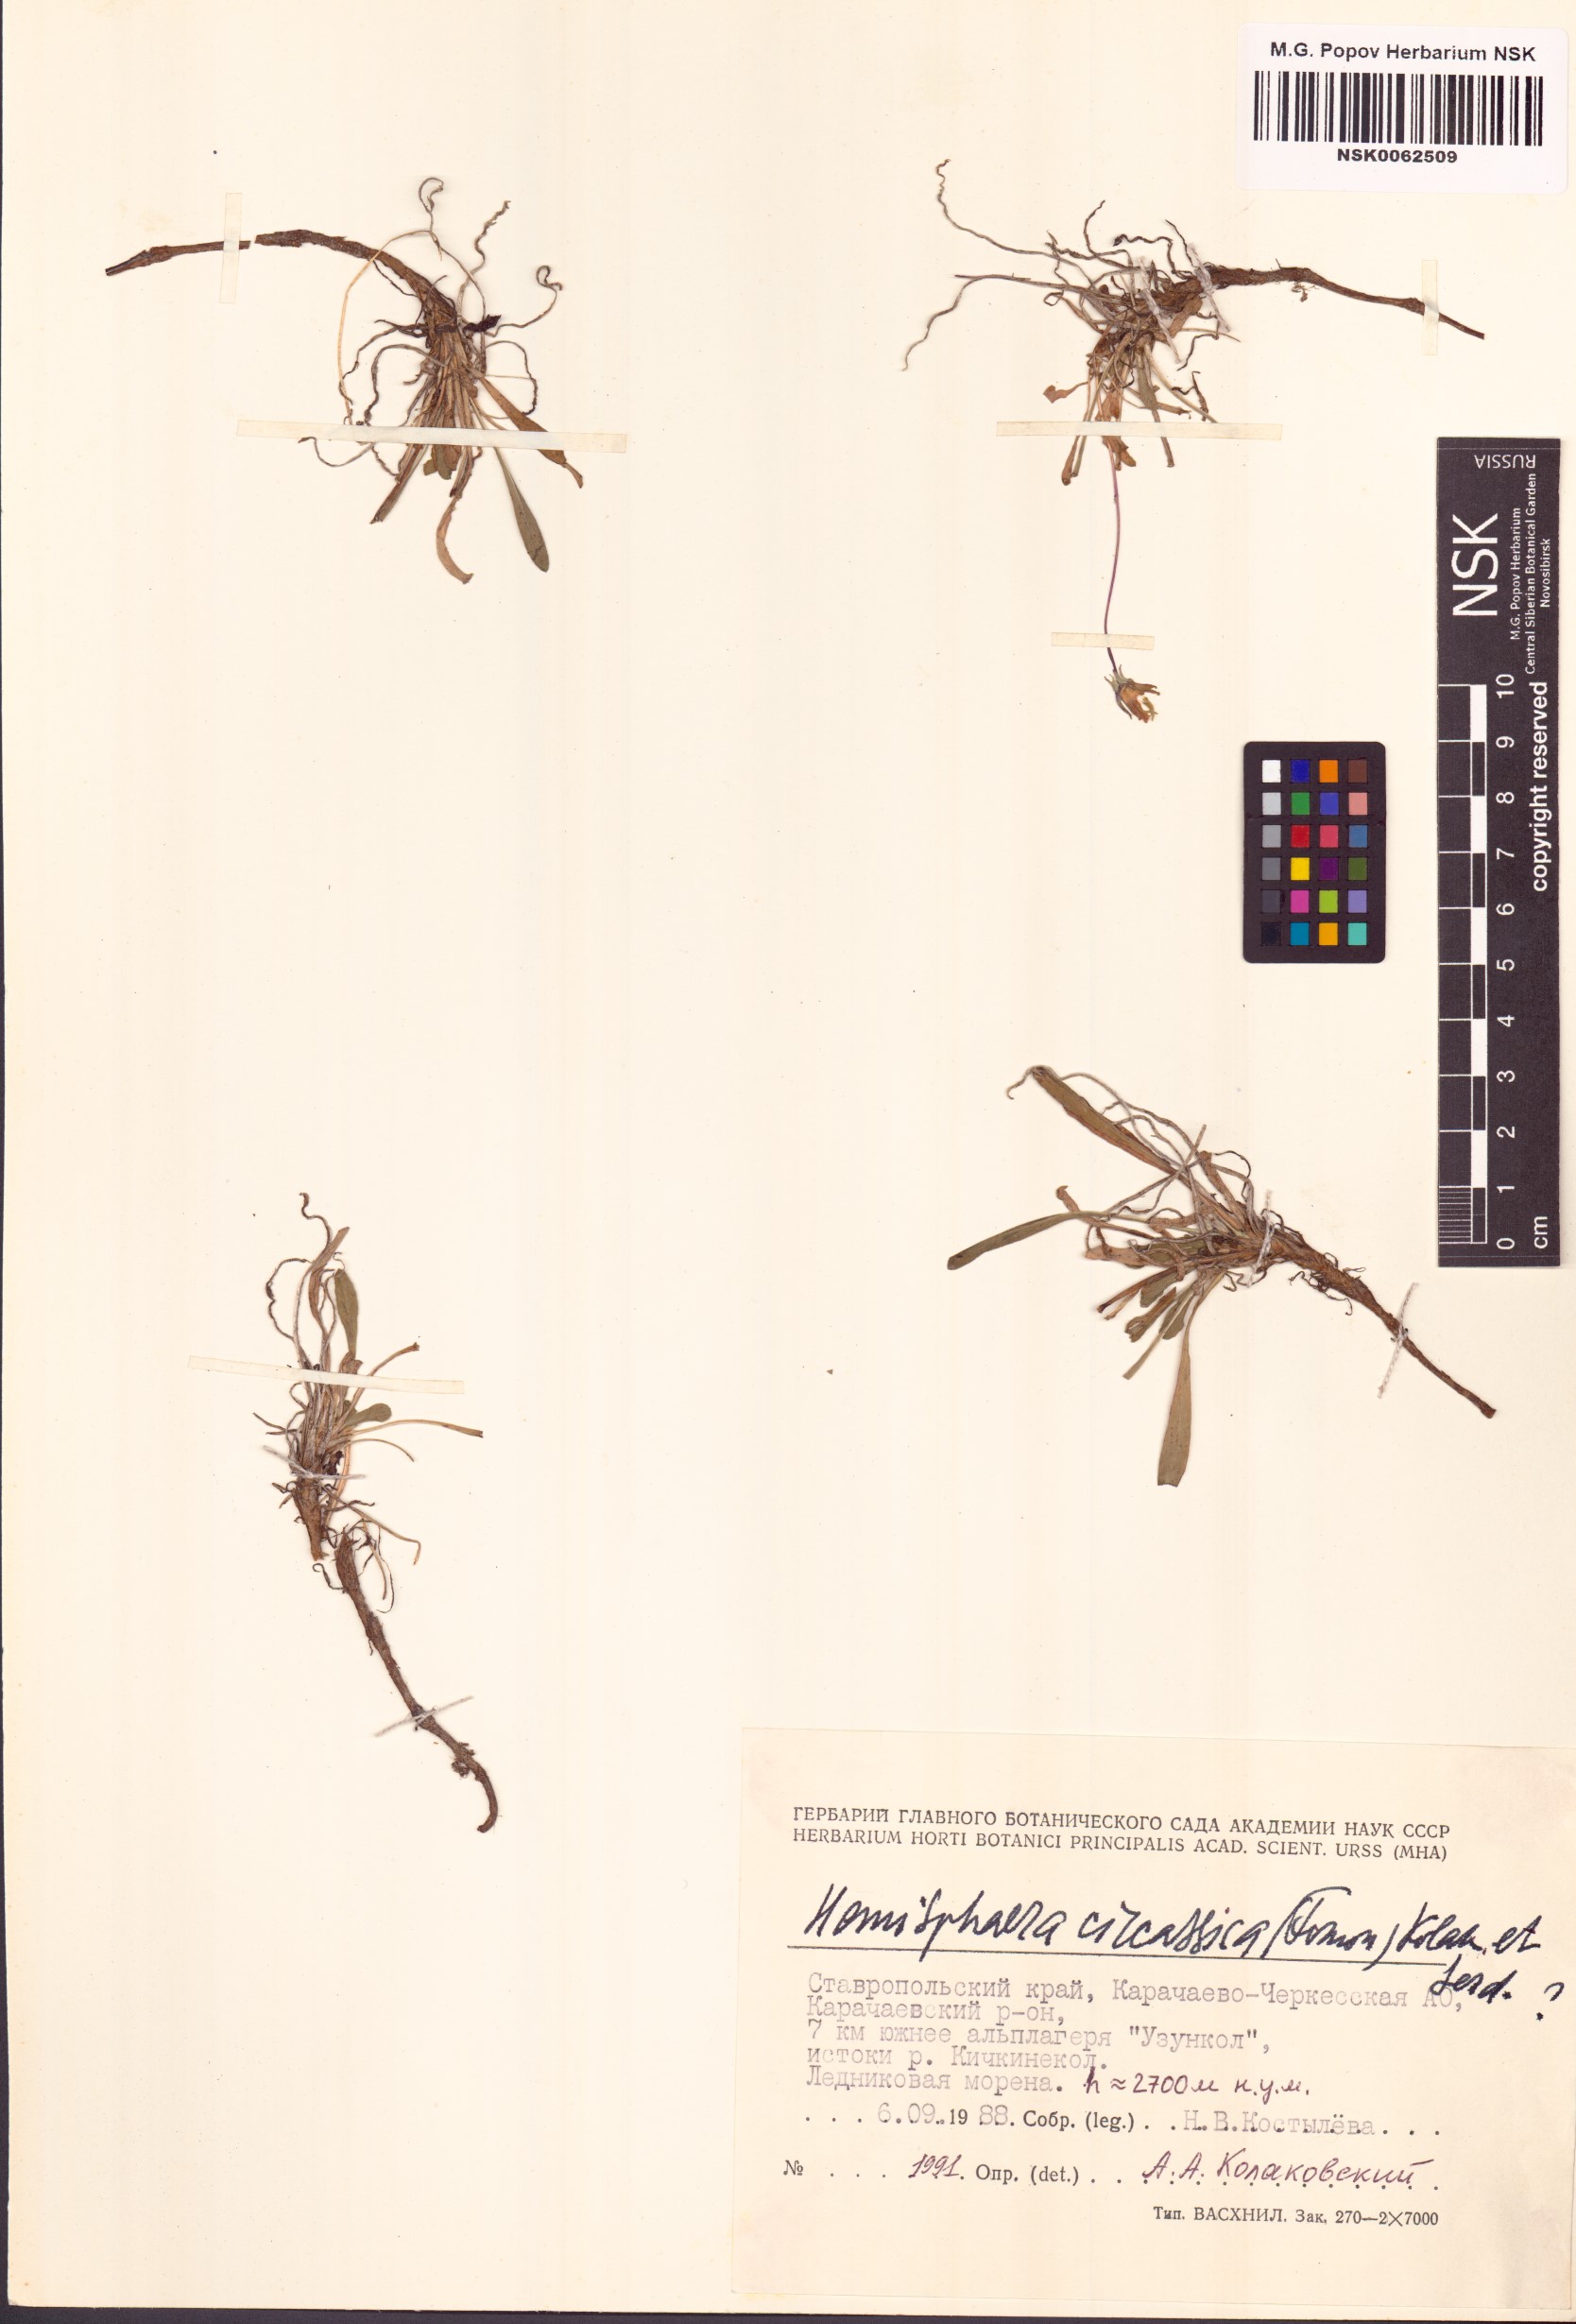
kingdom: Plantae
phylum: Tracheophyta
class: Magnoliopsida
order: Asterales
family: Campanulaceae
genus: Campanula
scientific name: Campanula saxifraga
